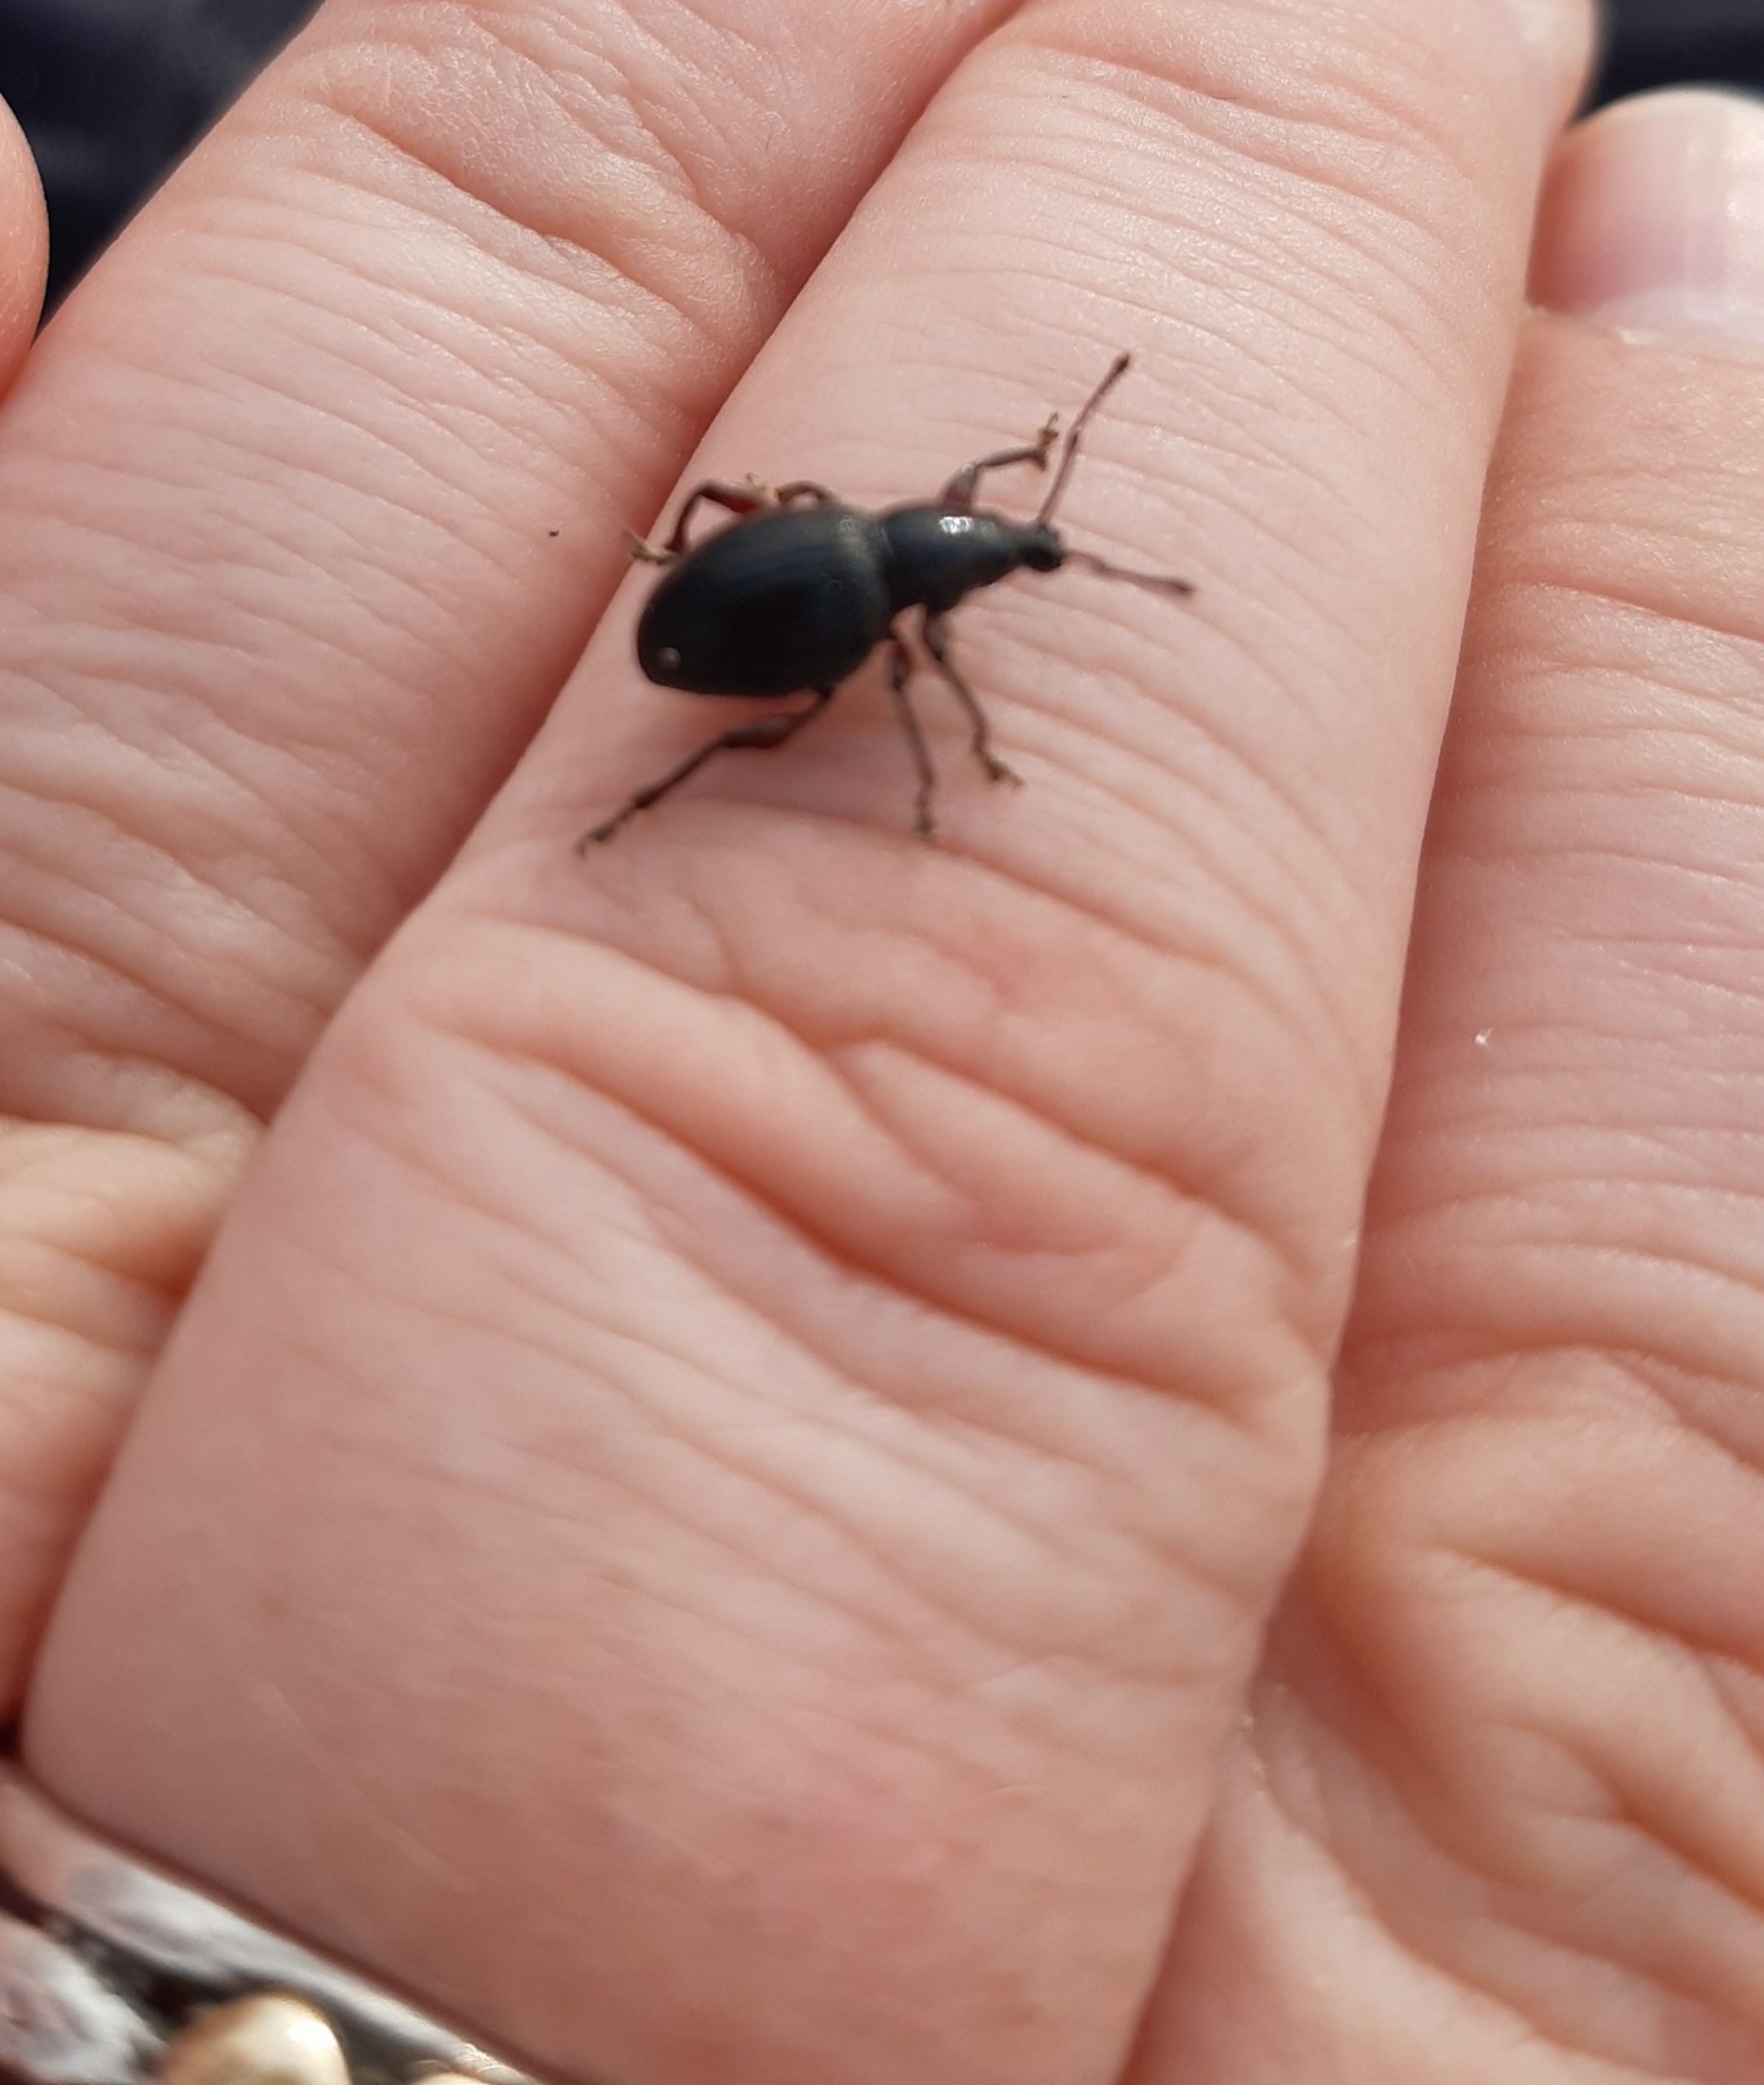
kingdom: Animalia
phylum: Arthropoda
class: Insecta
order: Coleoptera
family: Curculionidae
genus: Otiorhynchus
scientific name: Otiorhynchus atroapterus
